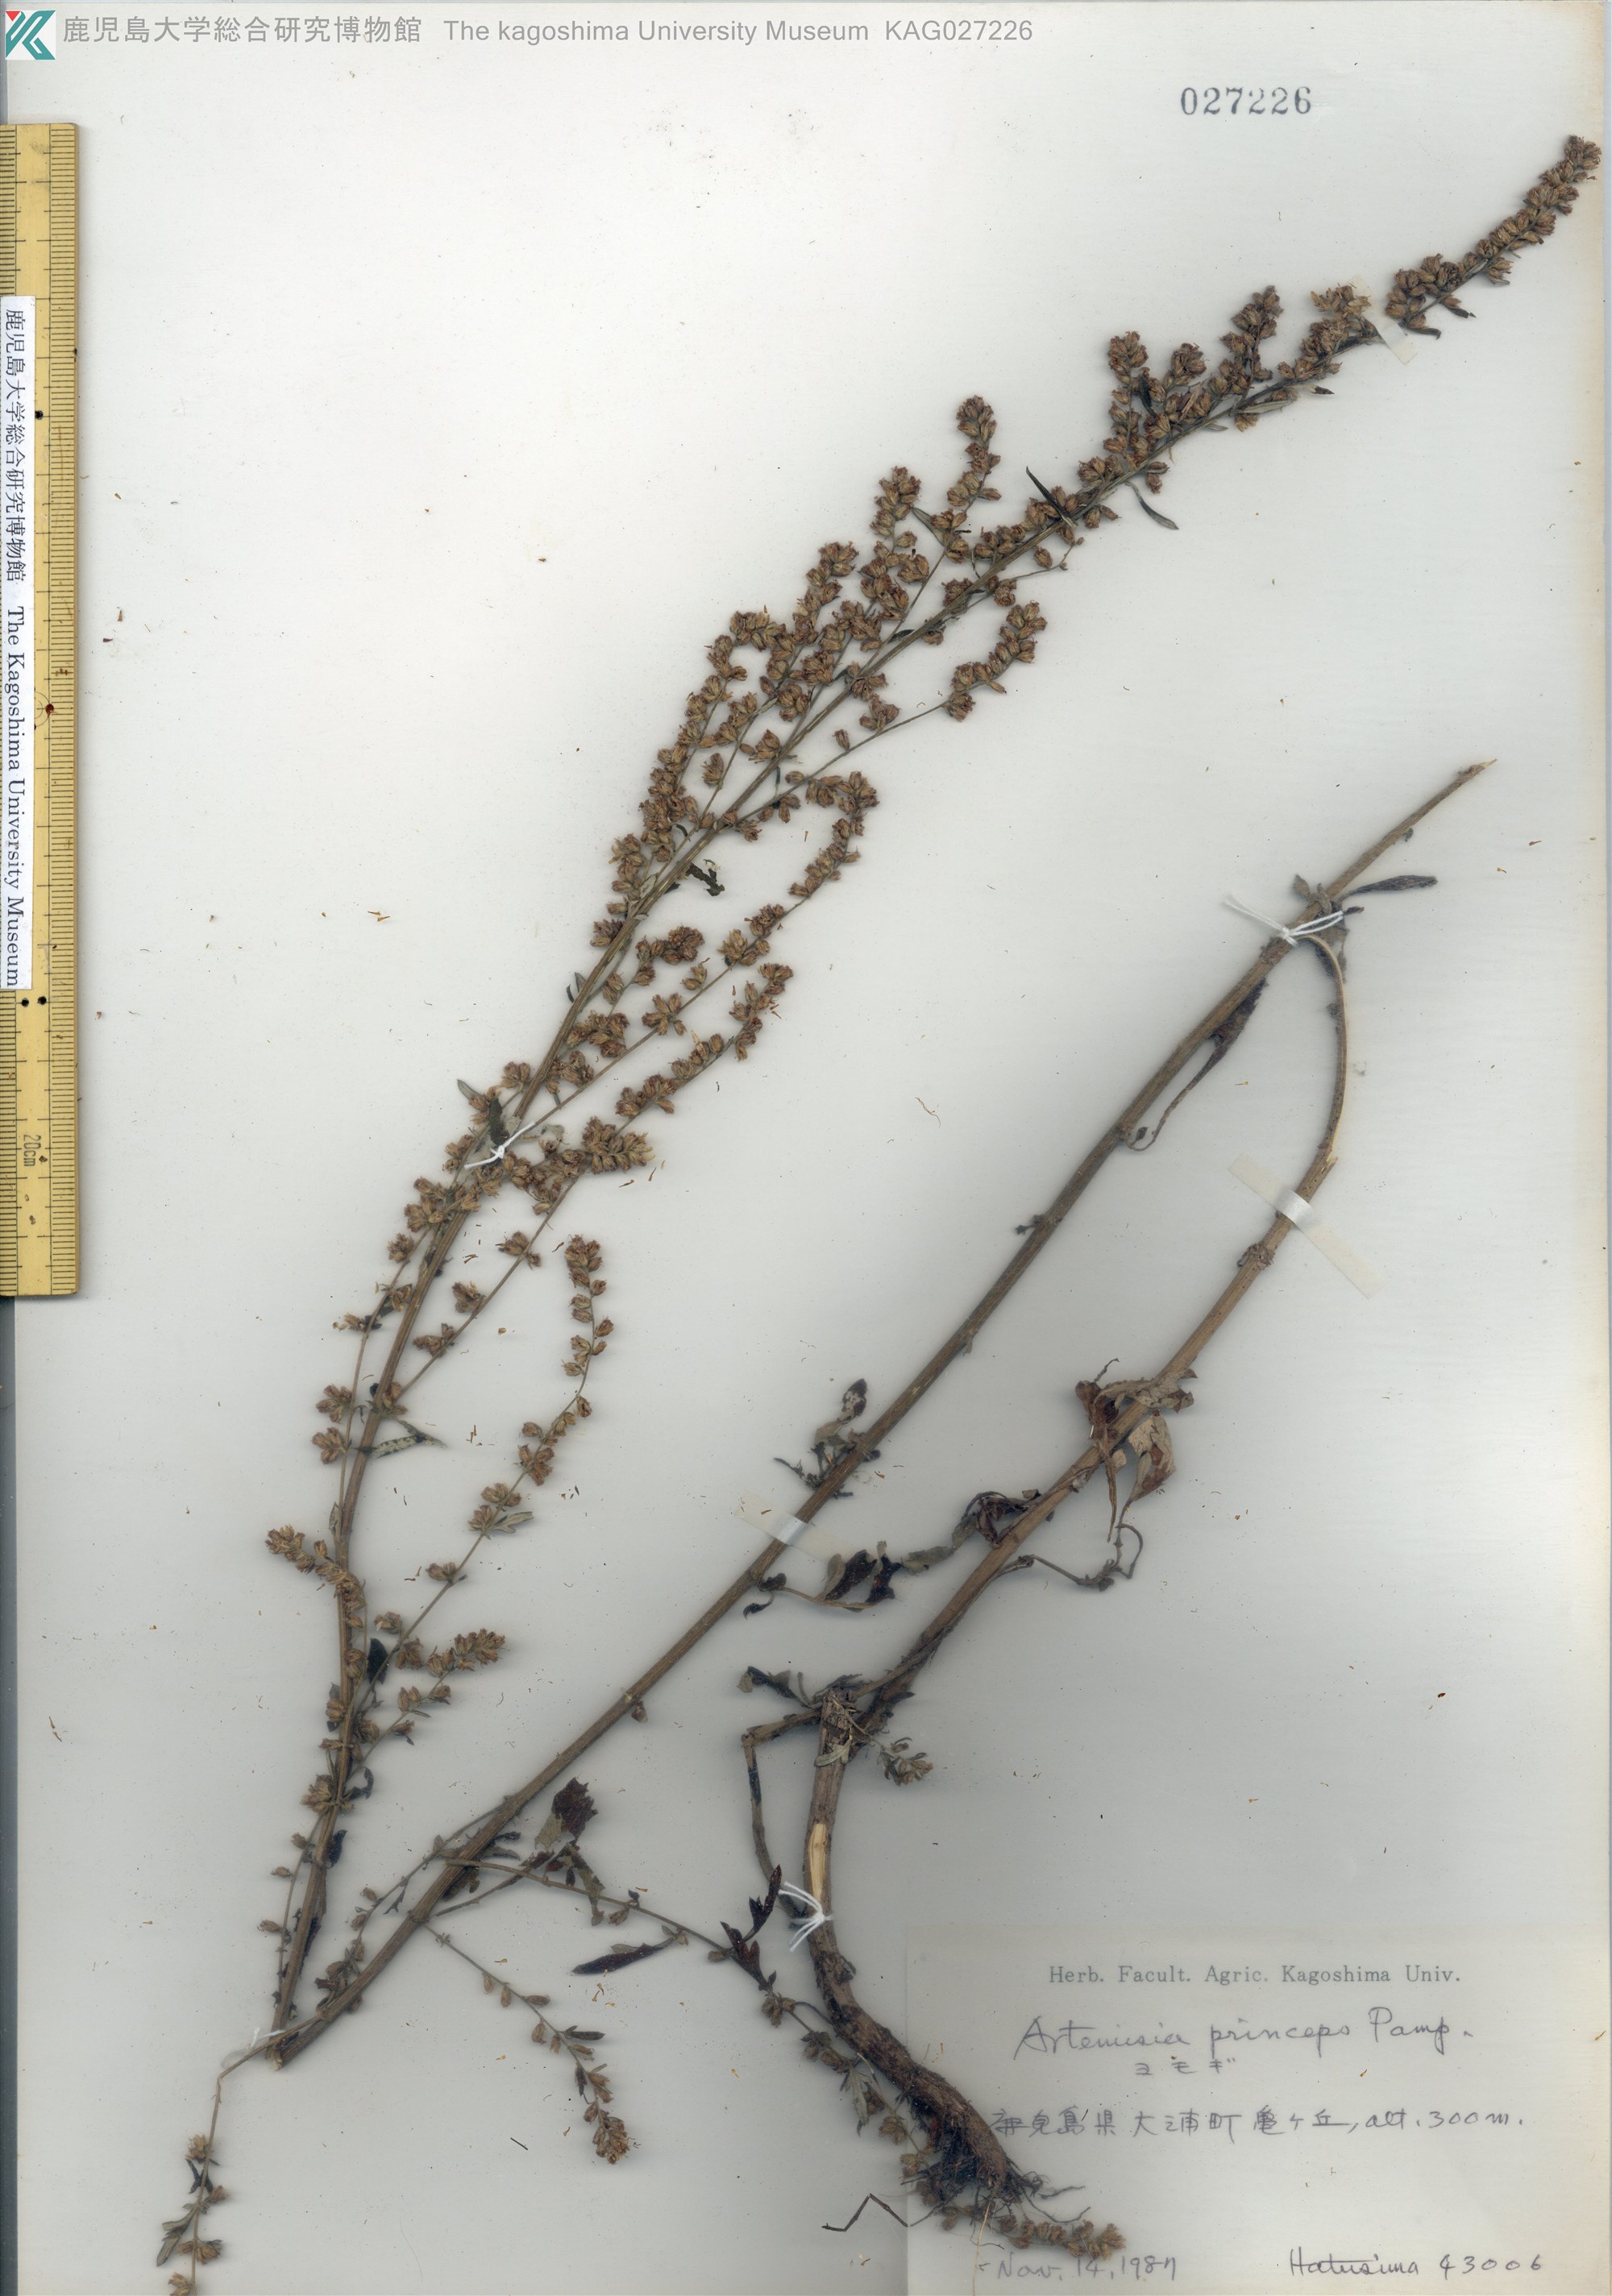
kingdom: Plantae
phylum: Tracheophyta
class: Magnoliopsida
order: Asterales
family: Asteraceae
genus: Artemisia
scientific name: Artemisia princeps
